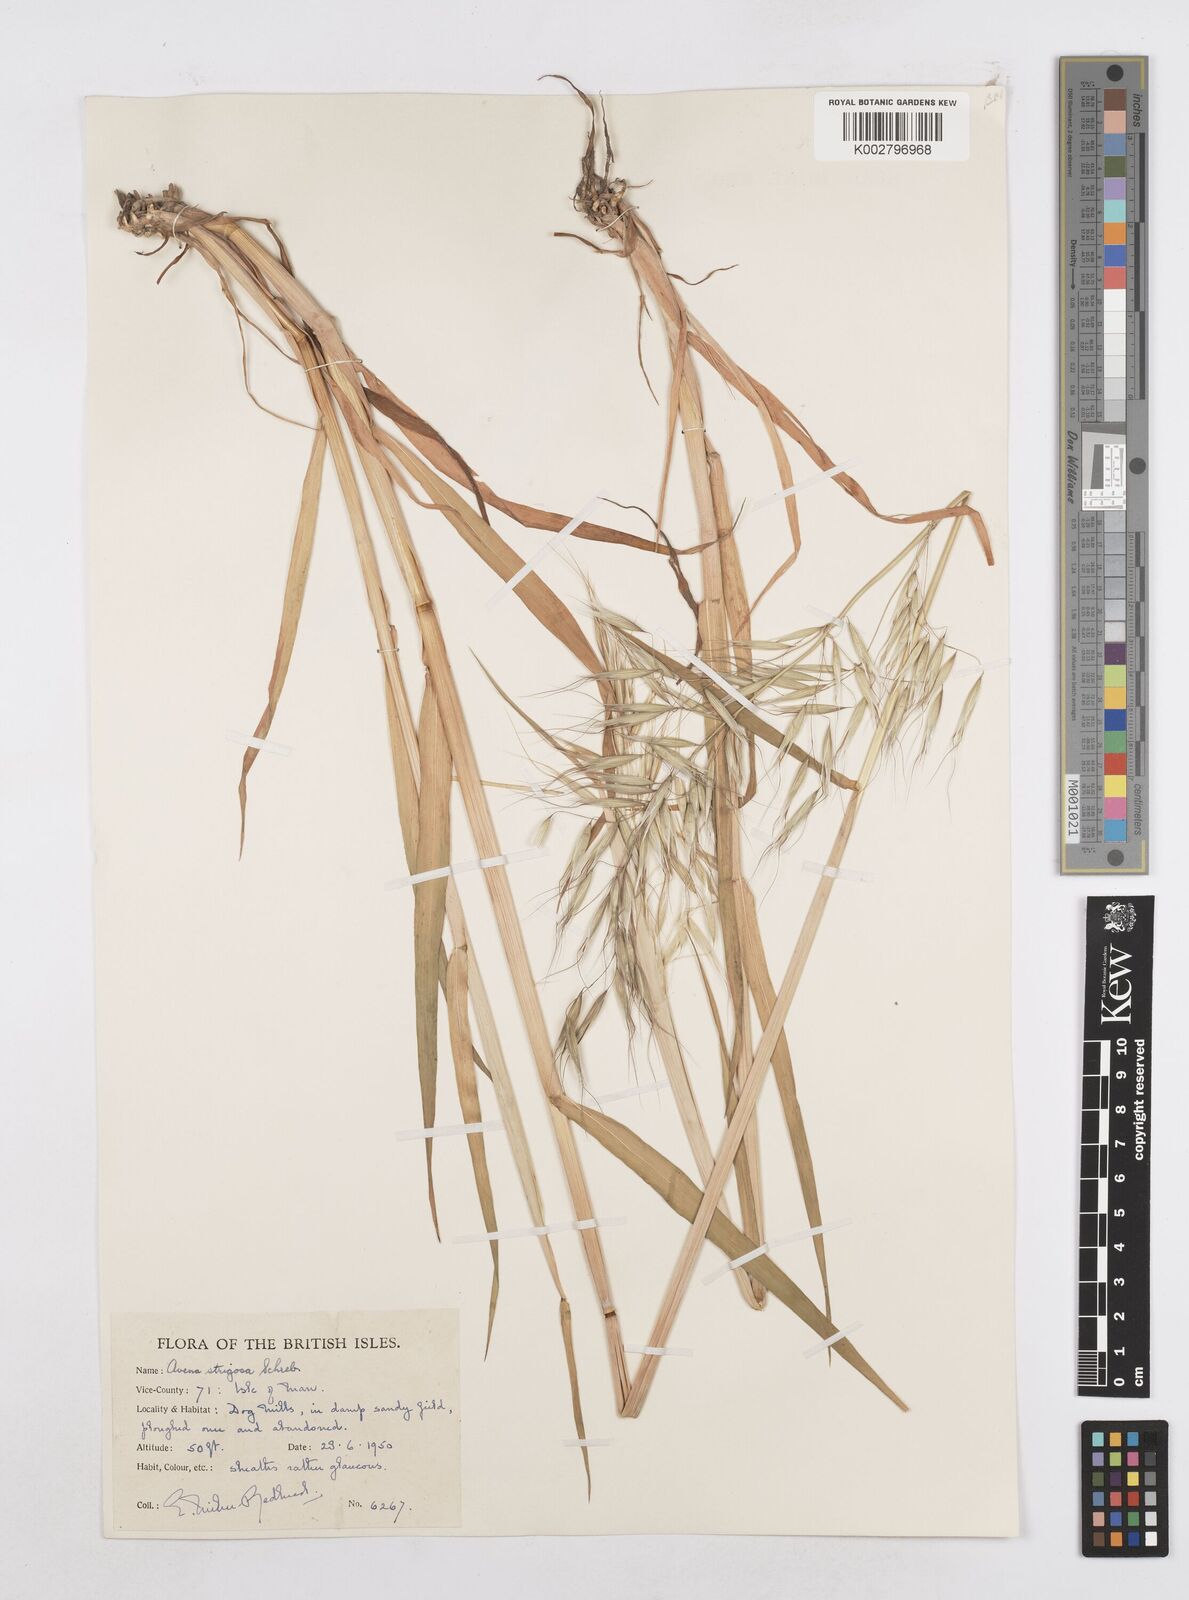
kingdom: Plantae
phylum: Tracheophyta
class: Liliopsida
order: Poales
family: Poaceae
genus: Avena
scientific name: Avena strigosa
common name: Bristle oat
